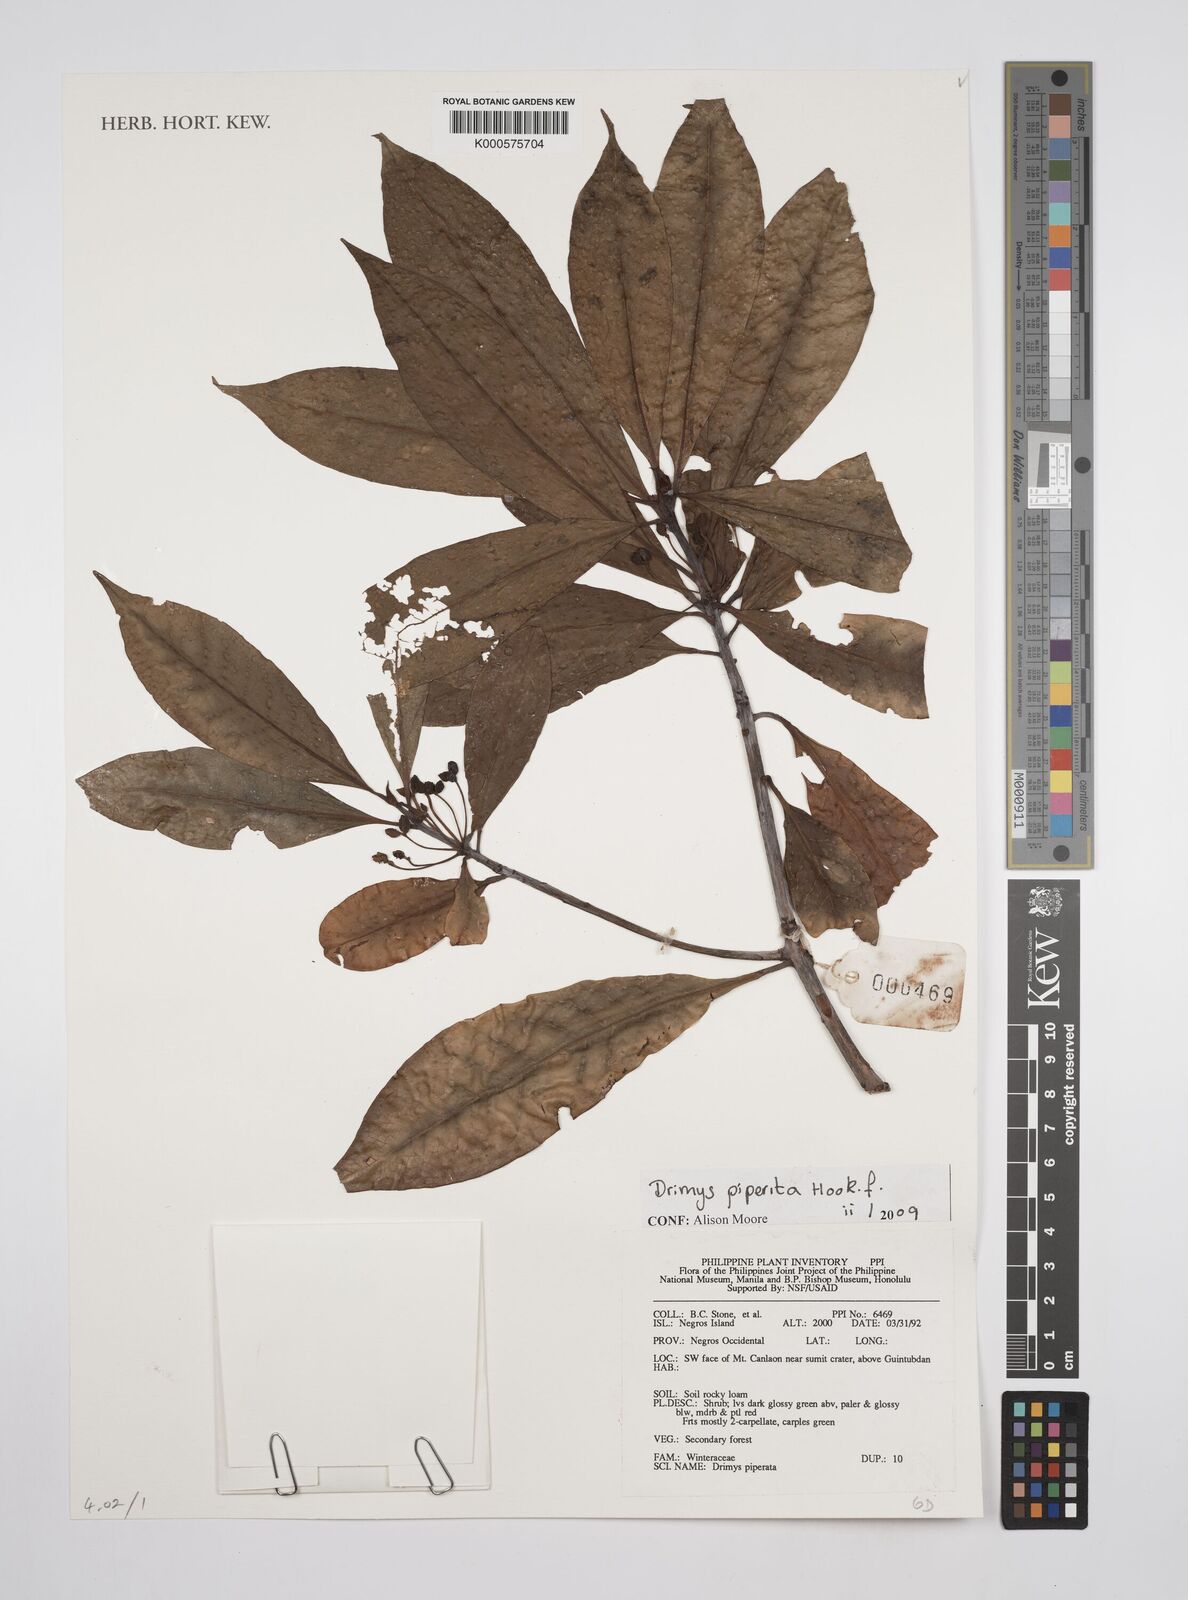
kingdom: Plantae
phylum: Tracheophyta
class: Magnoliopsida
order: Canellales
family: Winteraceae
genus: Drimys
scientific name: Drimys piperita
